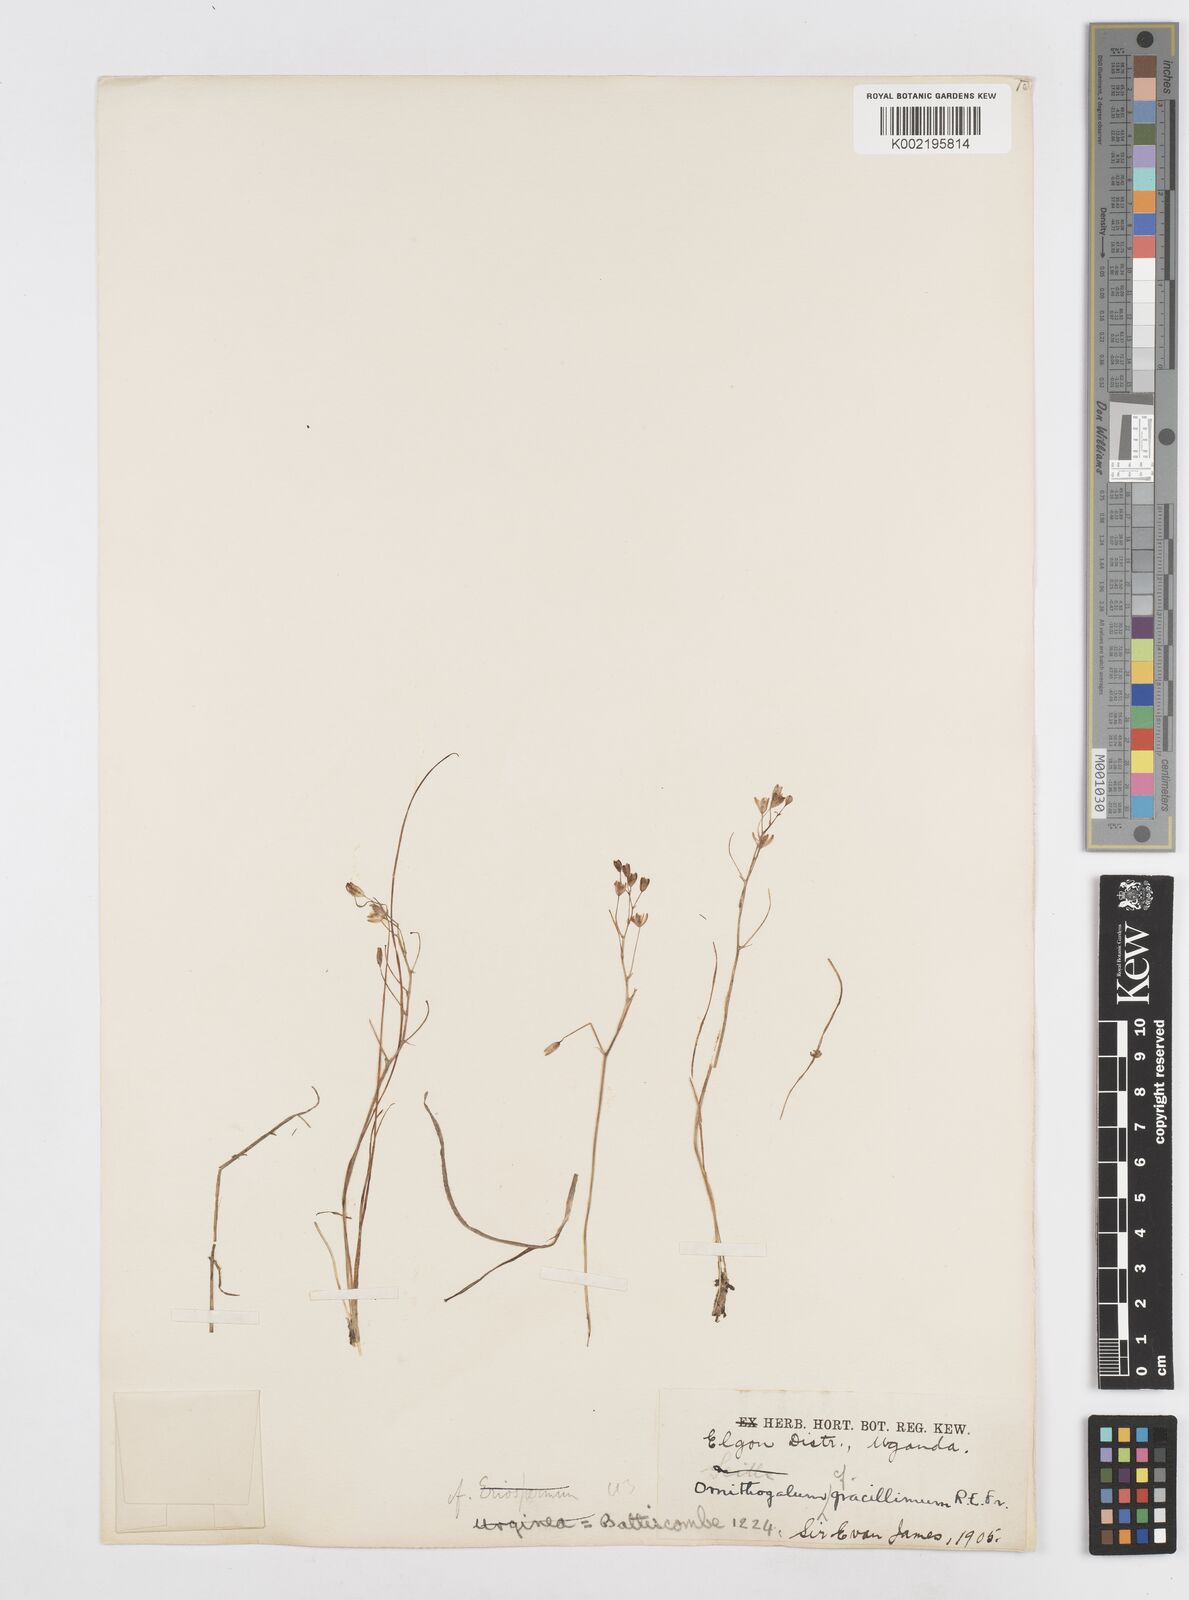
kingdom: Plantae
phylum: Tracheophyta
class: Liliopsida
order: Asparagales
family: Asparagaceae
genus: Ornithogalum
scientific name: Ornithogalum
